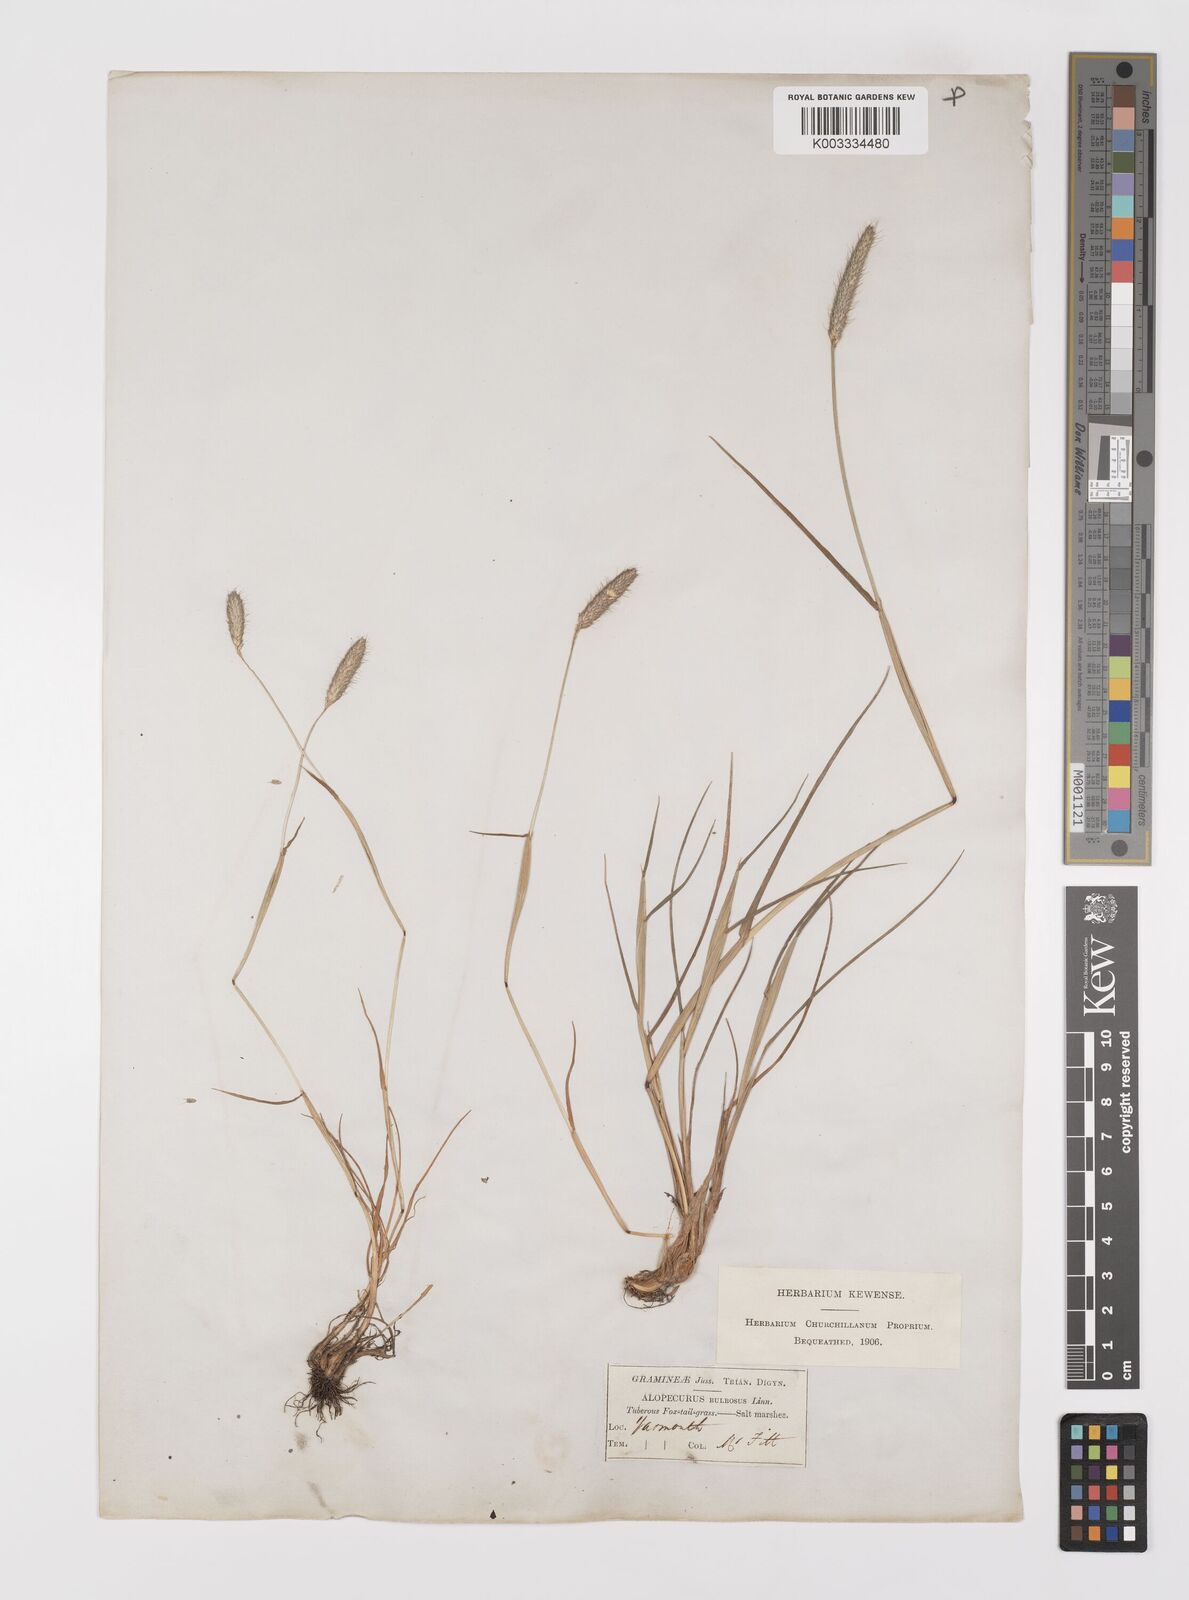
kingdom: Plantae
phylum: Tracheophyta
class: Liliopsida
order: Poales
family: Poaceae
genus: Alopecurus
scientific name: Alopecurus bulbosus
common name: Bulbous foxtail
